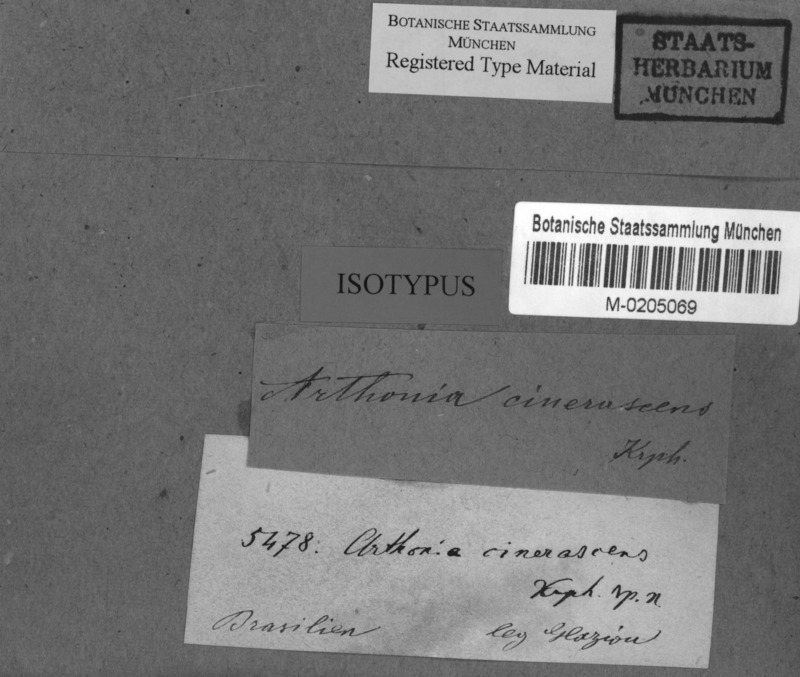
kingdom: Fungi
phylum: Ascomycota
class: Arthoniomycetes
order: Arthoniales
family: Arthoniaceae
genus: Arthothelium
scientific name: Arthothelium
